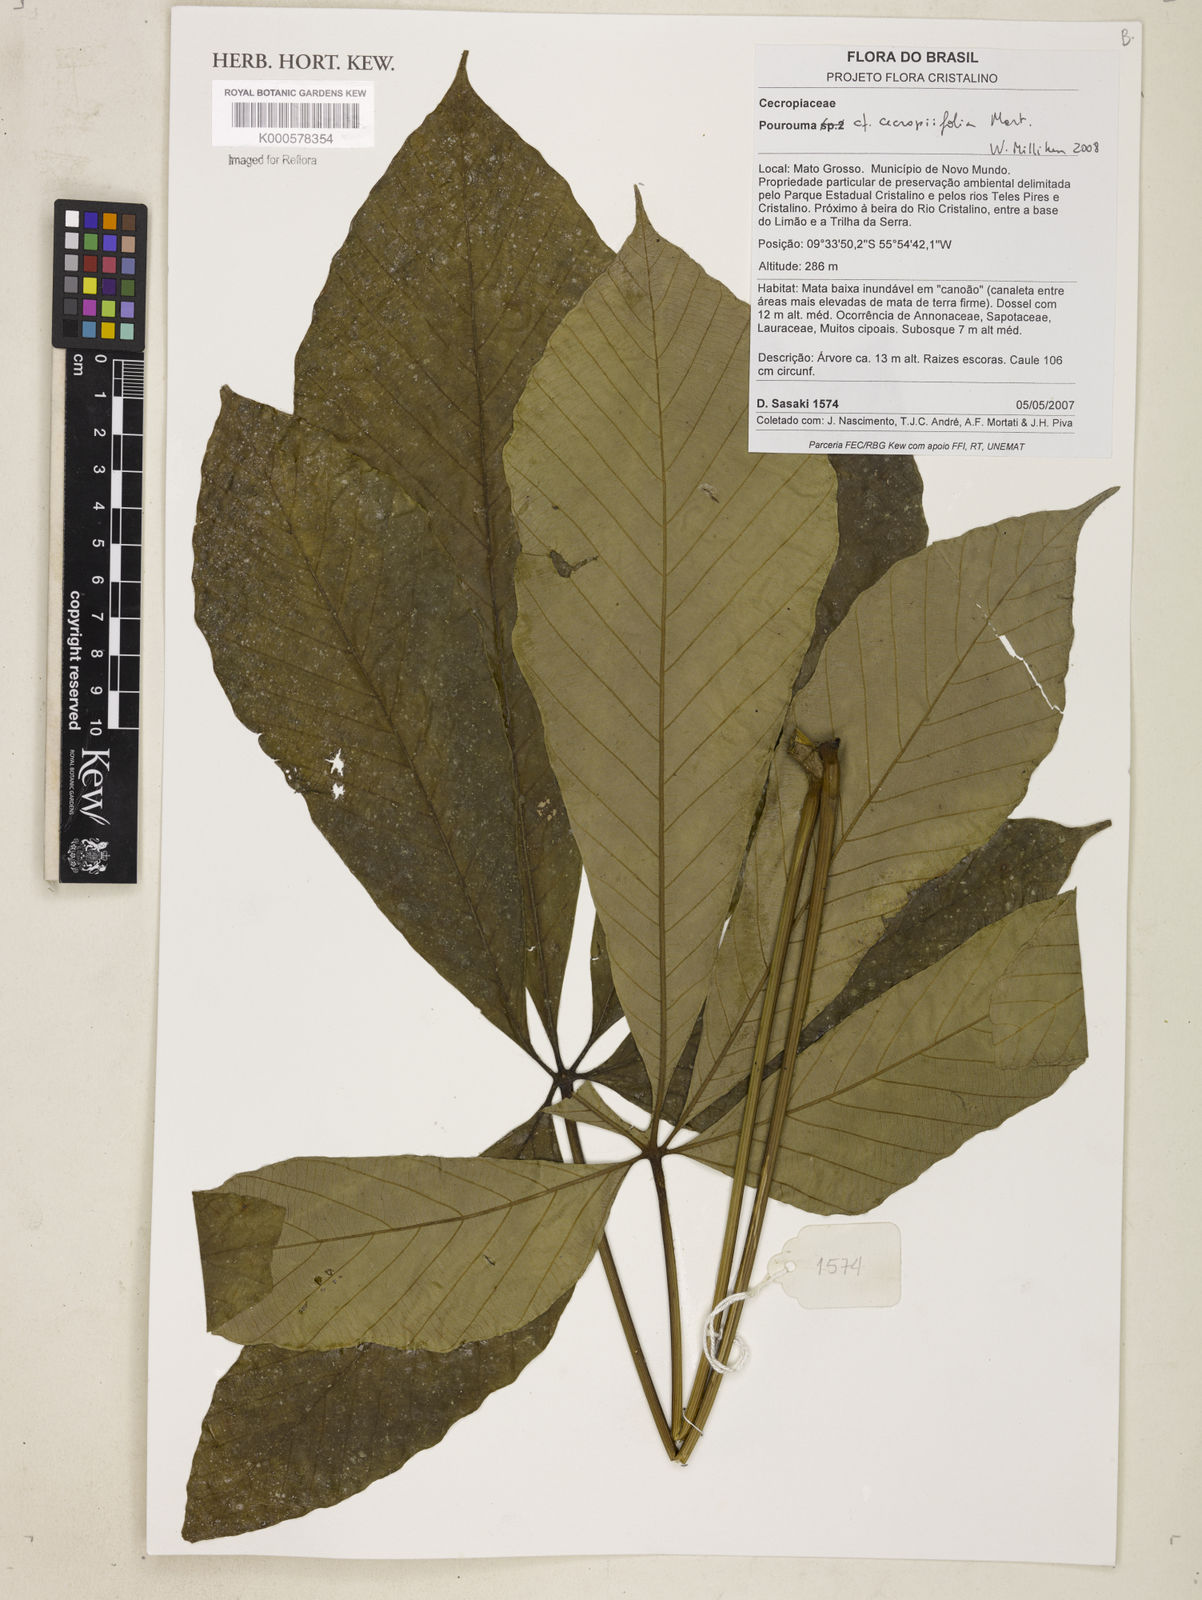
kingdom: Plantae
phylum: Tracheophyta
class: Magnoliopsida
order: Rosales
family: Urticaceae
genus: Pourouma
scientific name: Pourouma cecropiifolia
